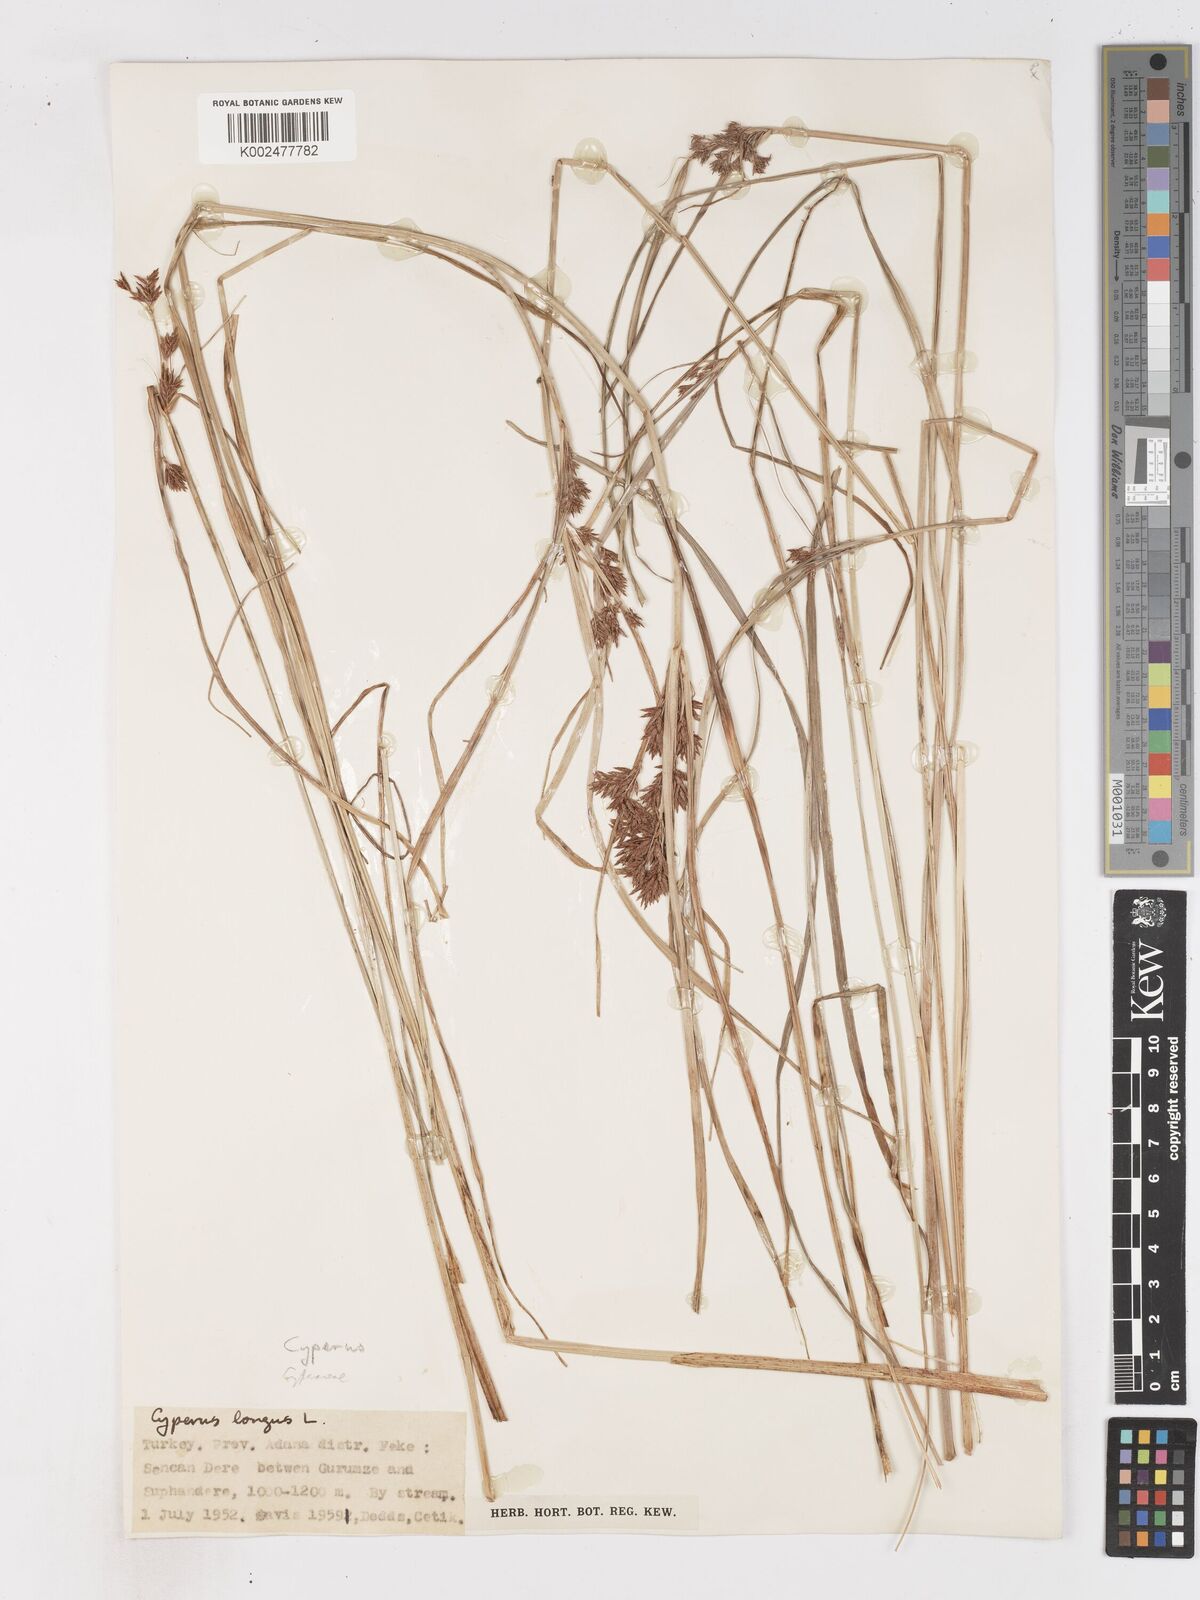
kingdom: Plantae
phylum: Tracheophyta
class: Liliopsida
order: Poales
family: Cyperaceae
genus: Cyperus
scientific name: Cyperus longus
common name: Galingale
